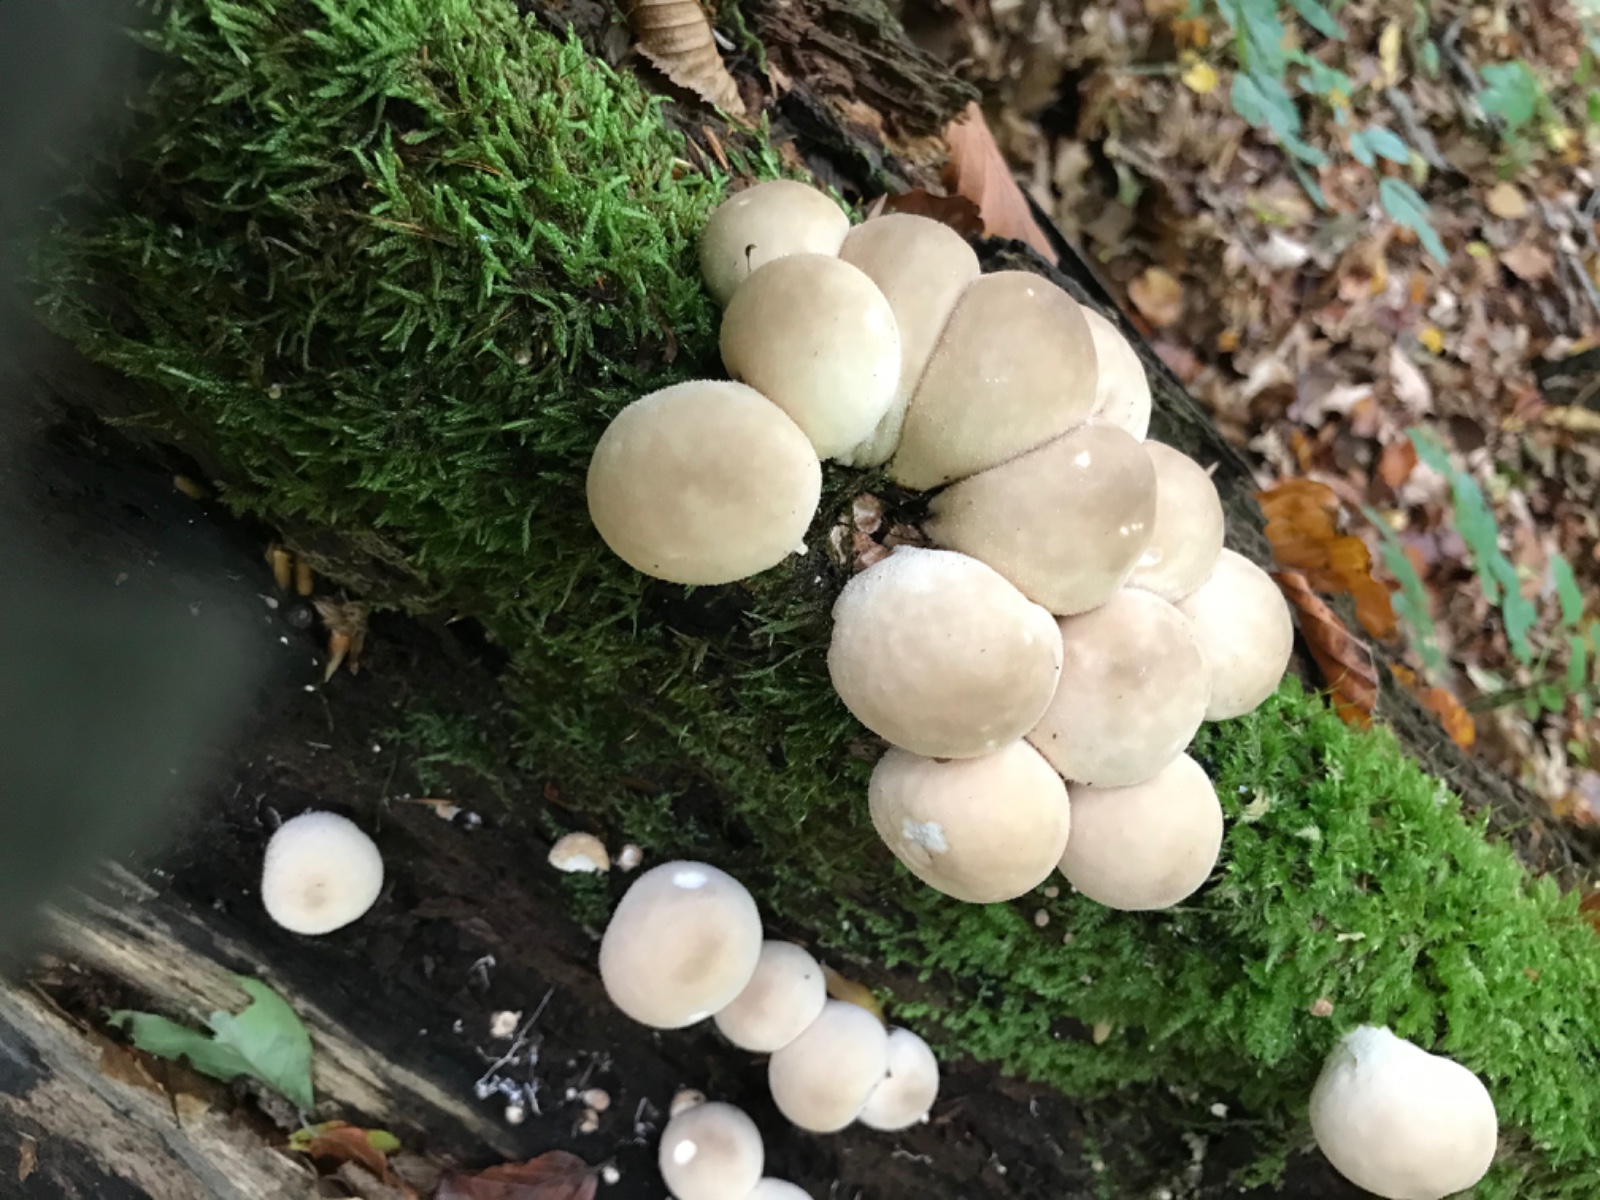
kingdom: Fungi
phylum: Basidiomycota
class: Agaricomycetes
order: Agaricales
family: Lycoperdaceae
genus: Apioperdon
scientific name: Apioperdon pyriforme
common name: pære-støvbold
